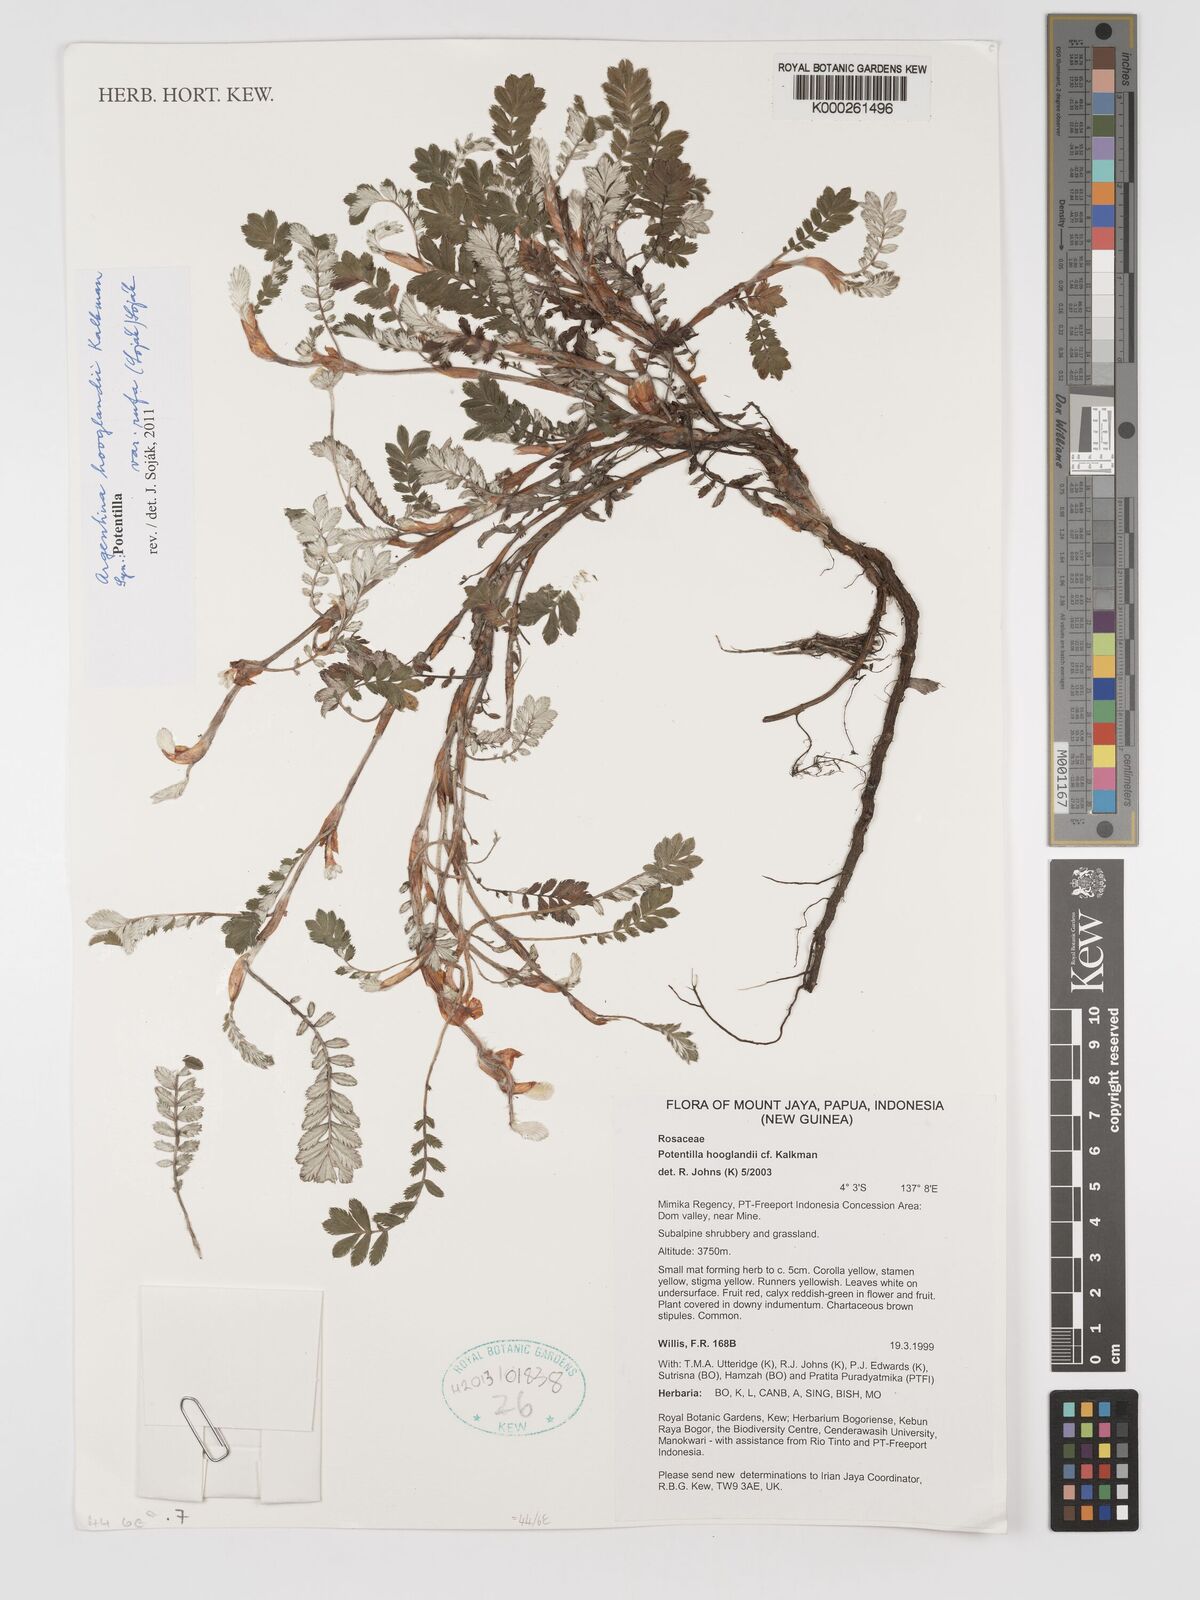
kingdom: Plantae
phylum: Tracheophyta
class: Magnoliopsida
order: Rosales
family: Rosaceae
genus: Argentina
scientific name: Argentina hooglandii
